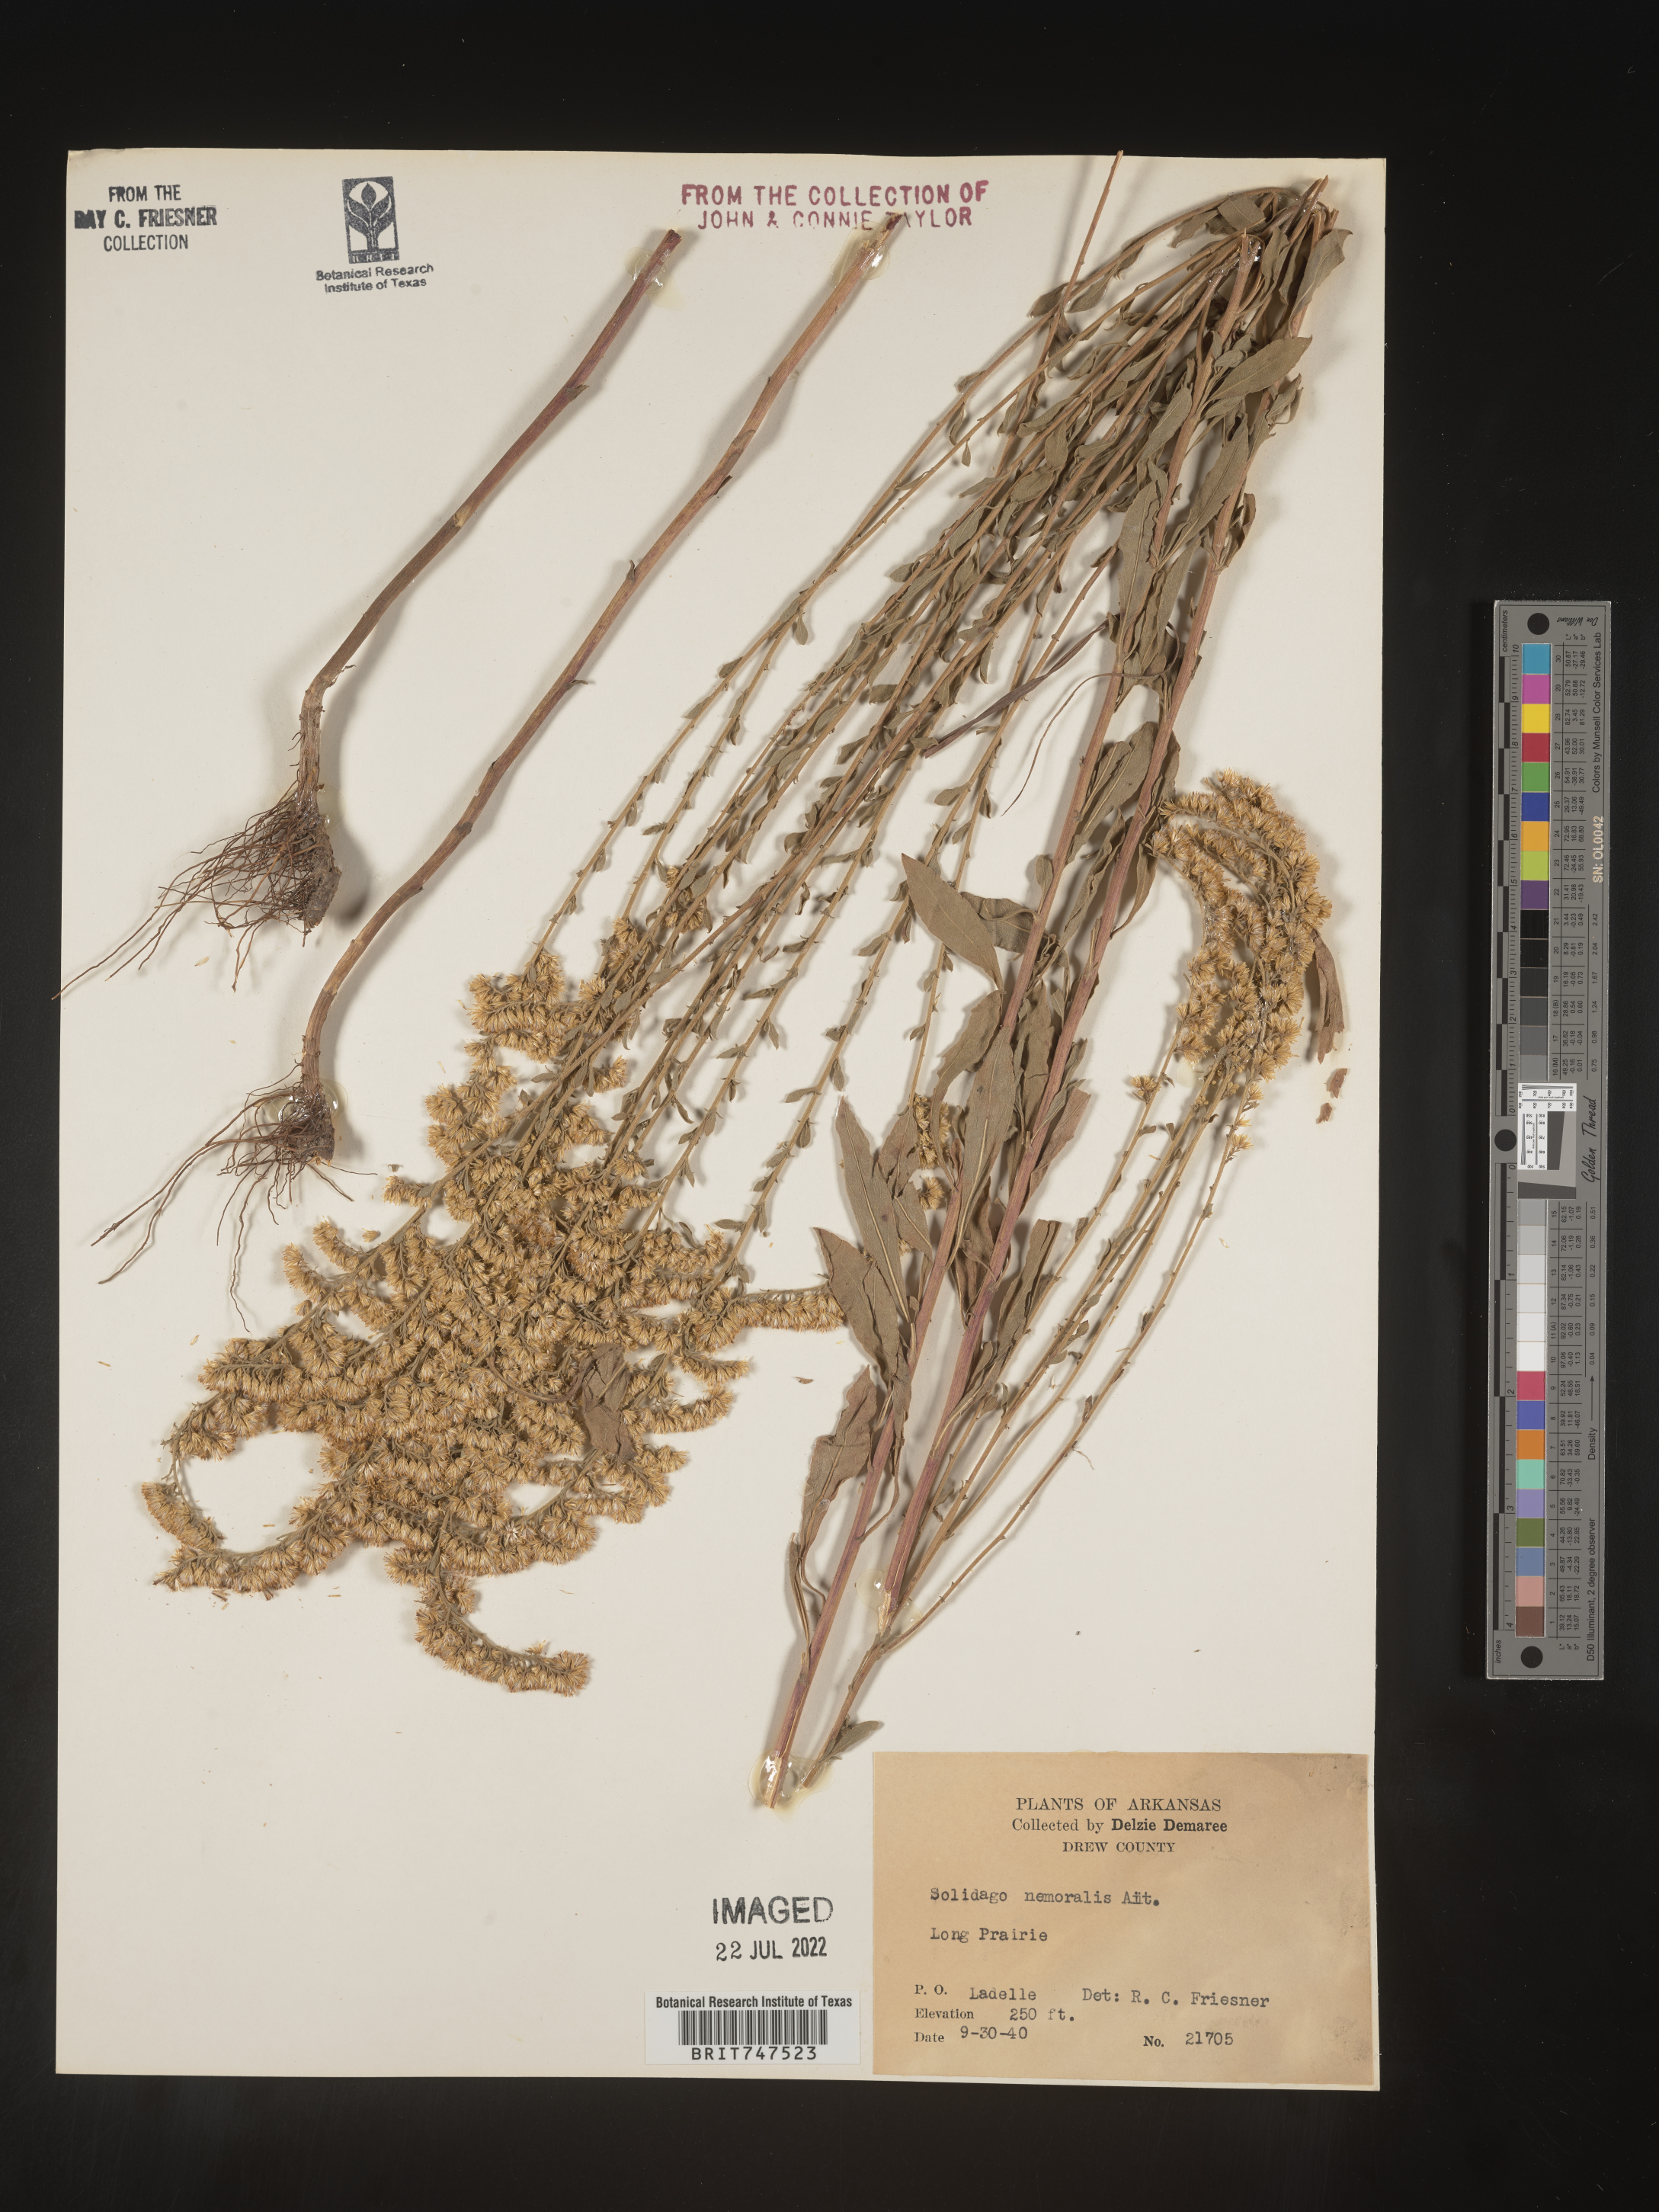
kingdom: Plantae
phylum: Tracheophyta
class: Magnoliopsida
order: Asterales
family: Asteraceae
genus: Solidago
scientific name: Solidago nemoralis
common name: Grey goldenrod
